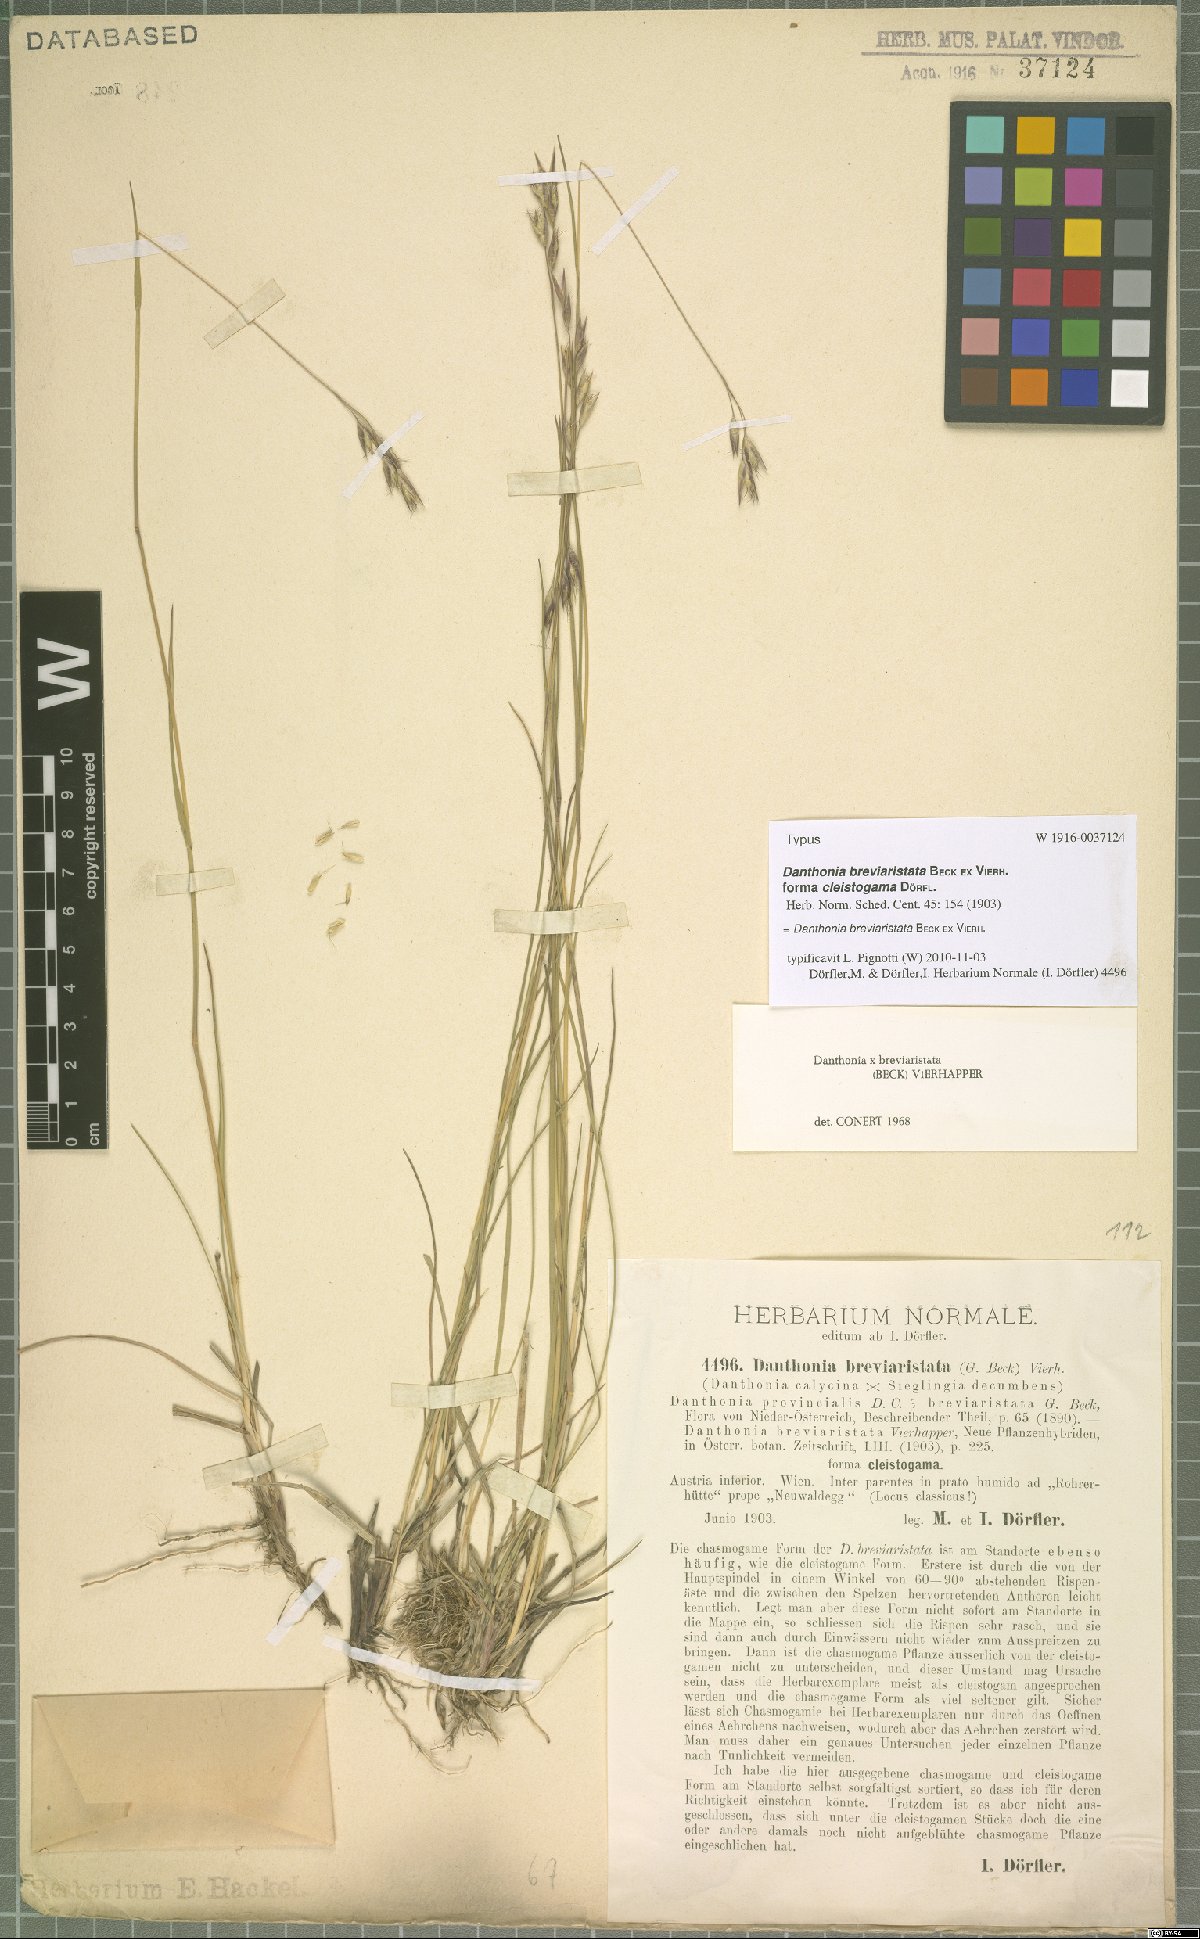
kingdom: Plantae
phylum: Tracheophyta
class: Liliopsida
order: Poales
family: Poaceae
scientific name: Poaceae
